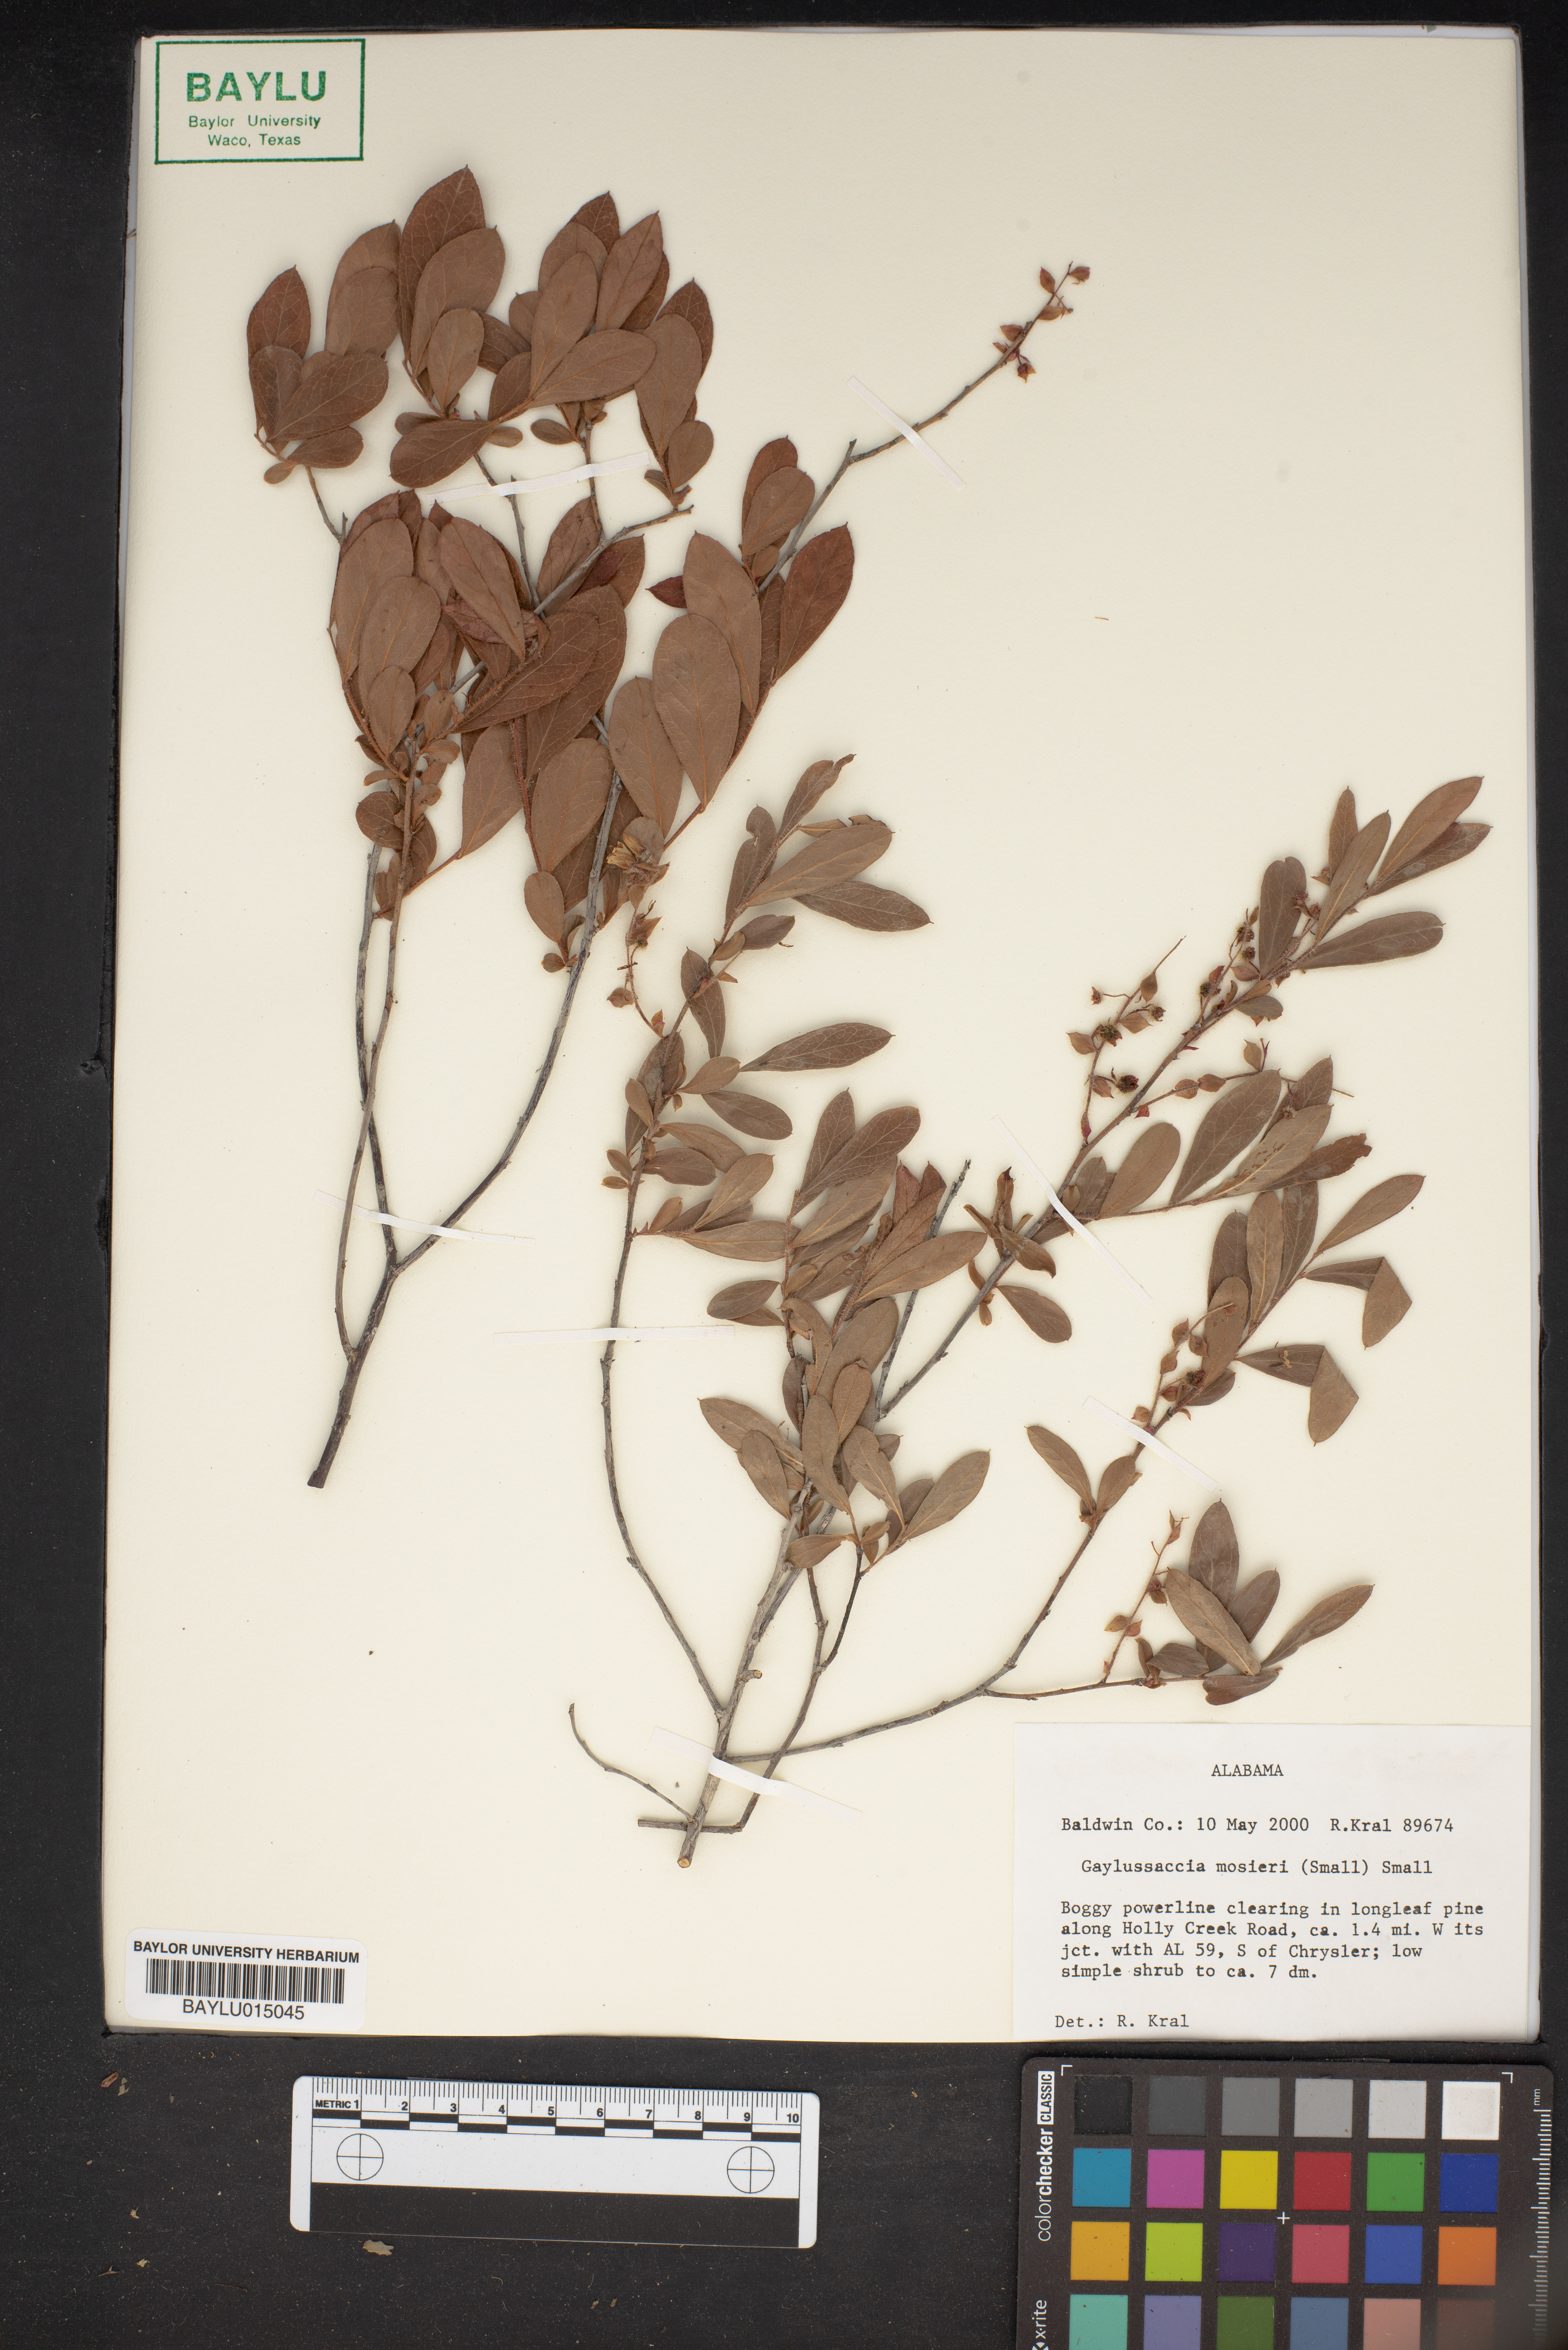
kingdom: Plantae
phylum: Tracheophyta
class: Magnoliopsida
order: Ericales
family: Ericaceae
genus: Gaylussacia
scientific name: Gaylussacia mosieri
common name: Hirsute huckleberry
